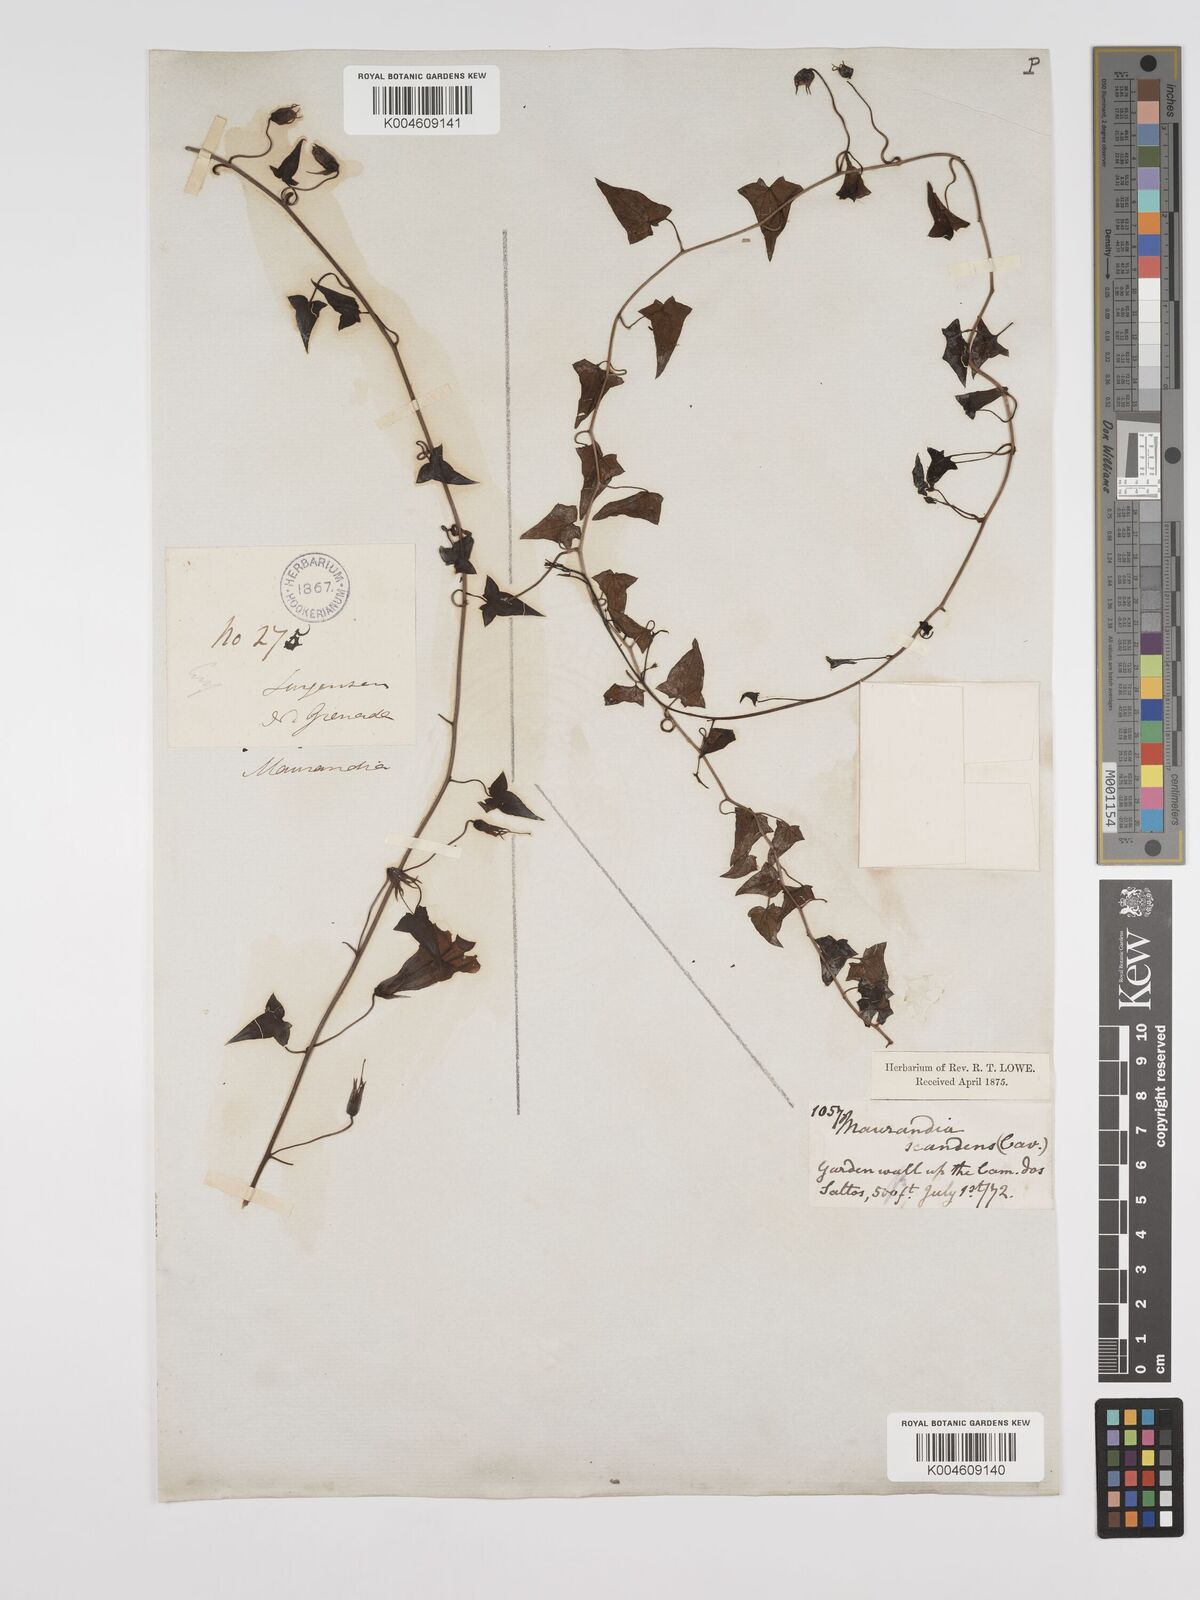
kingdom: Plantae
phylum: Tracheophyta
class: Magnoliopsida
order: Lamiales
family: Plantaginaceae
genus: Maurandya
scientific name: Maurandya scandens
